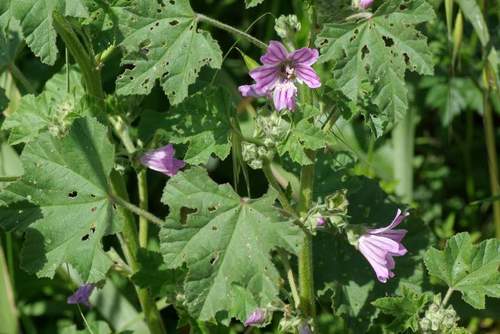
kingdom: Plantae
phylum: Tracheophyta
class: Magnoliopsida
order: Malvales
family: Malvaceae
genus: Malva
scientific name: Malva multiflora
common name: Cheeseweed
